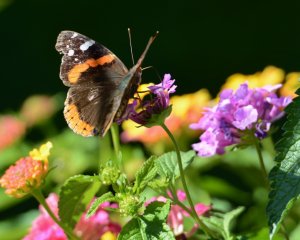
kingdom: Animalia
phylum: Arthropoda
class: Insecta
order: Lepidoptera
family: Nymphalidae
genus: Vanessa
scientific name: Vanessa atalanta
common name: Red Admiral
